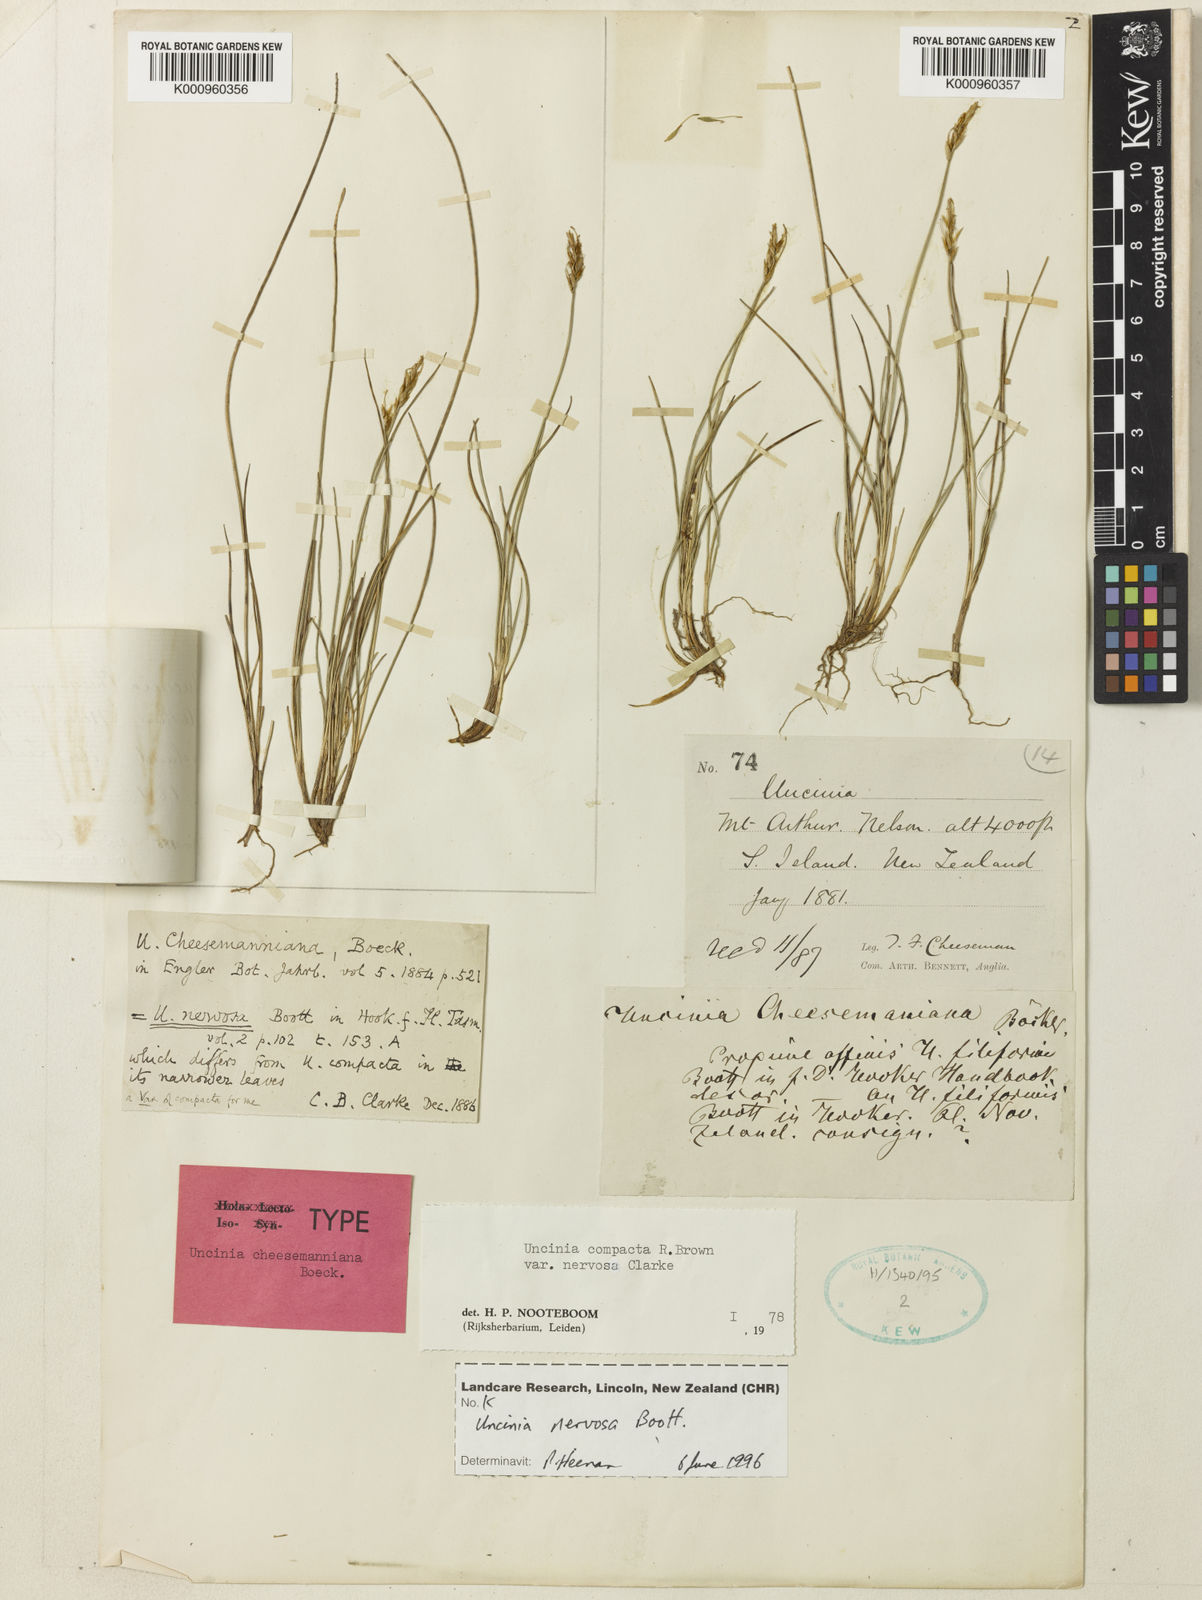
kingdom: Plantae
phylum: Tracheophyta
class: Liliopsida
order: Poales
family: Cyperaceae
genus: Carex
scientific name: Carex cheesemanniana
